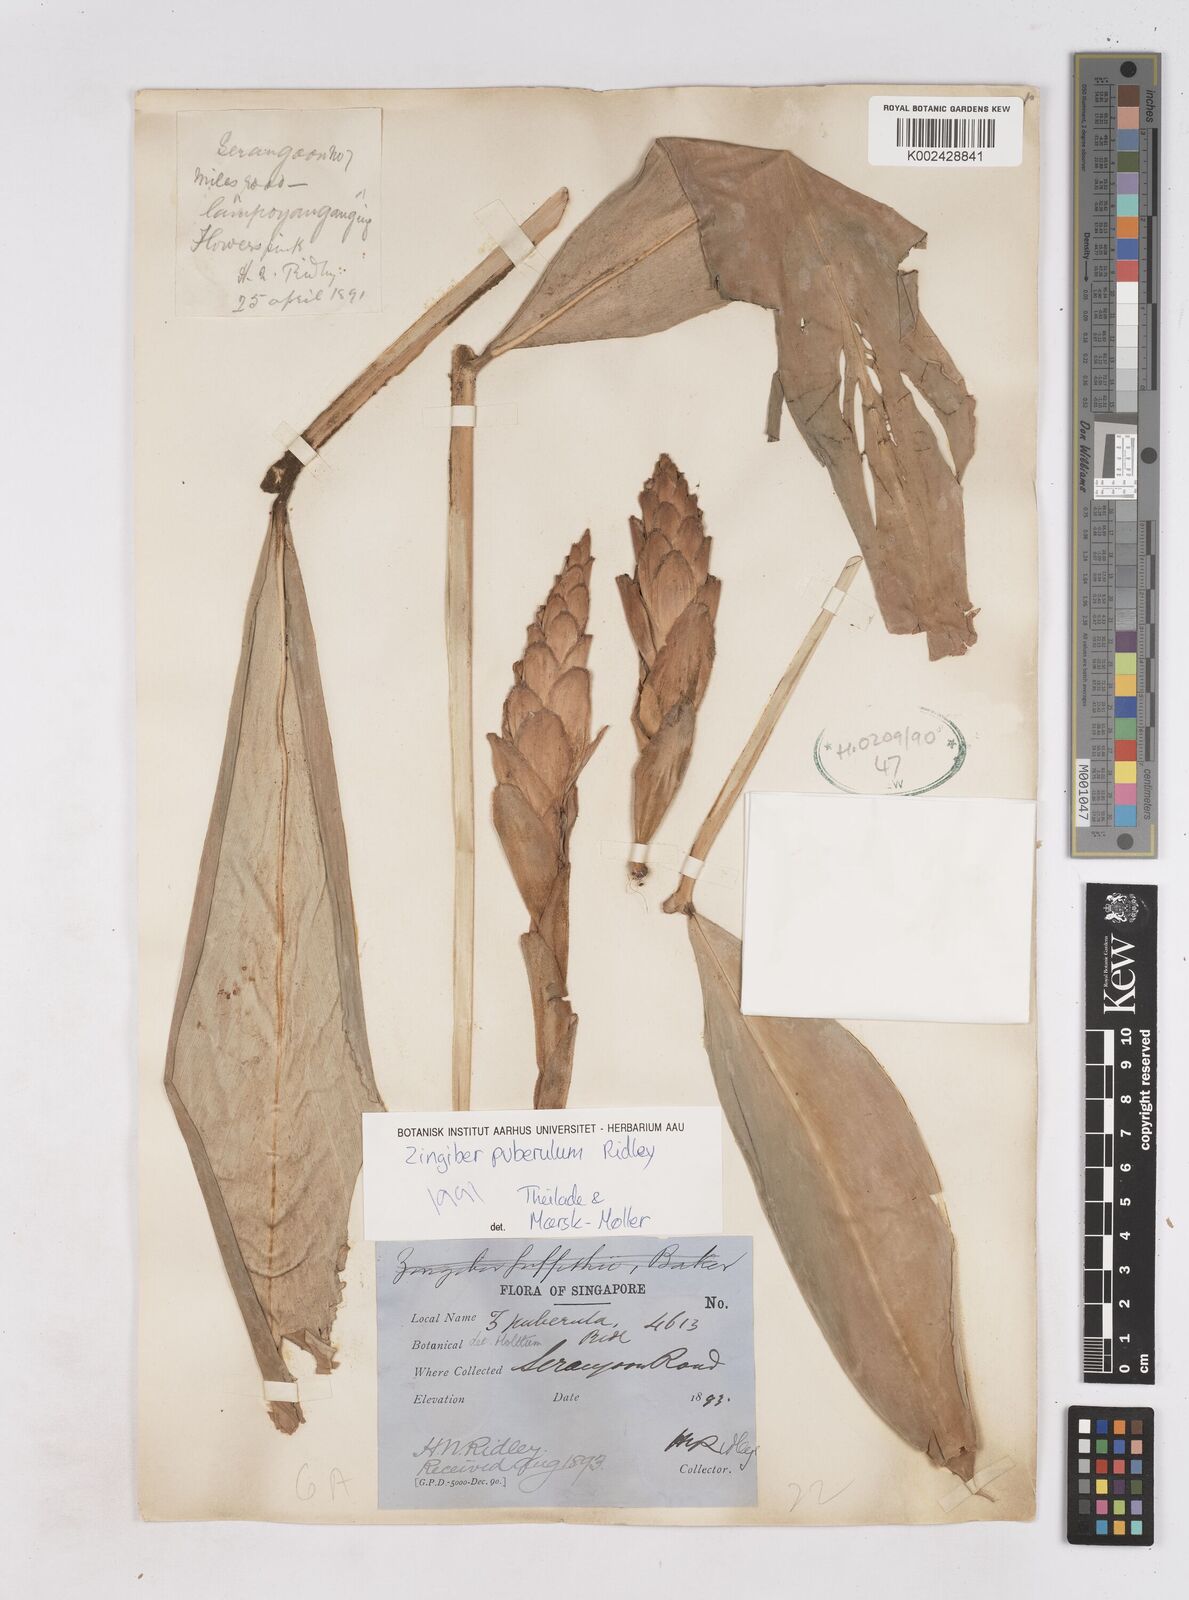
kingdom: Plantae
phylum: Tracheophyta
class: Liliopsida
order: Zingiberales
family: Zingiberaceae
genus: Zingiber
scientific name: Zingiber puberulum
